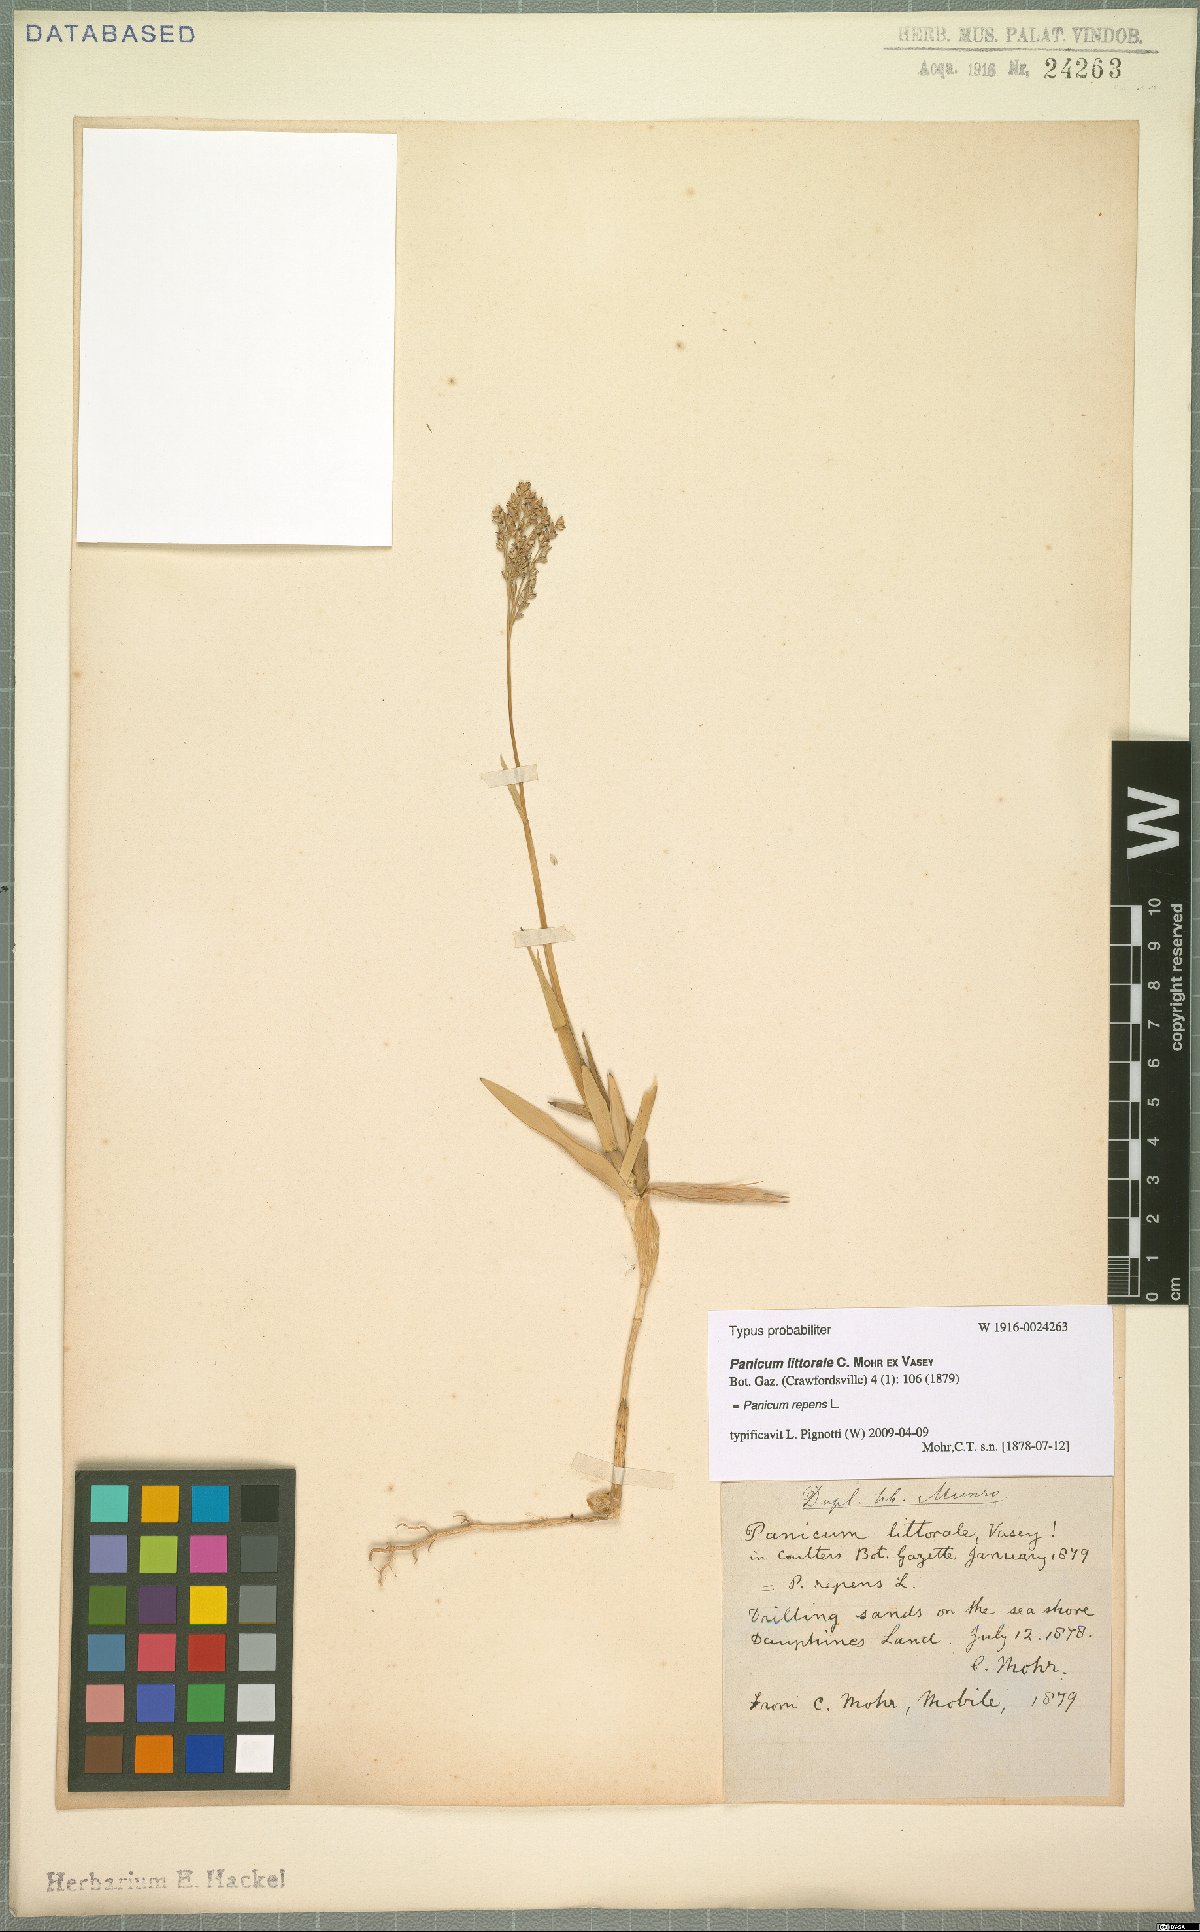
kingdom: Plantae
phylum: Tracheophyta
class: Liliopsida
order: Poales
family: Poaceae
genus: Panicum
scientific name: Panicum repens
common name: Torpedo grass
